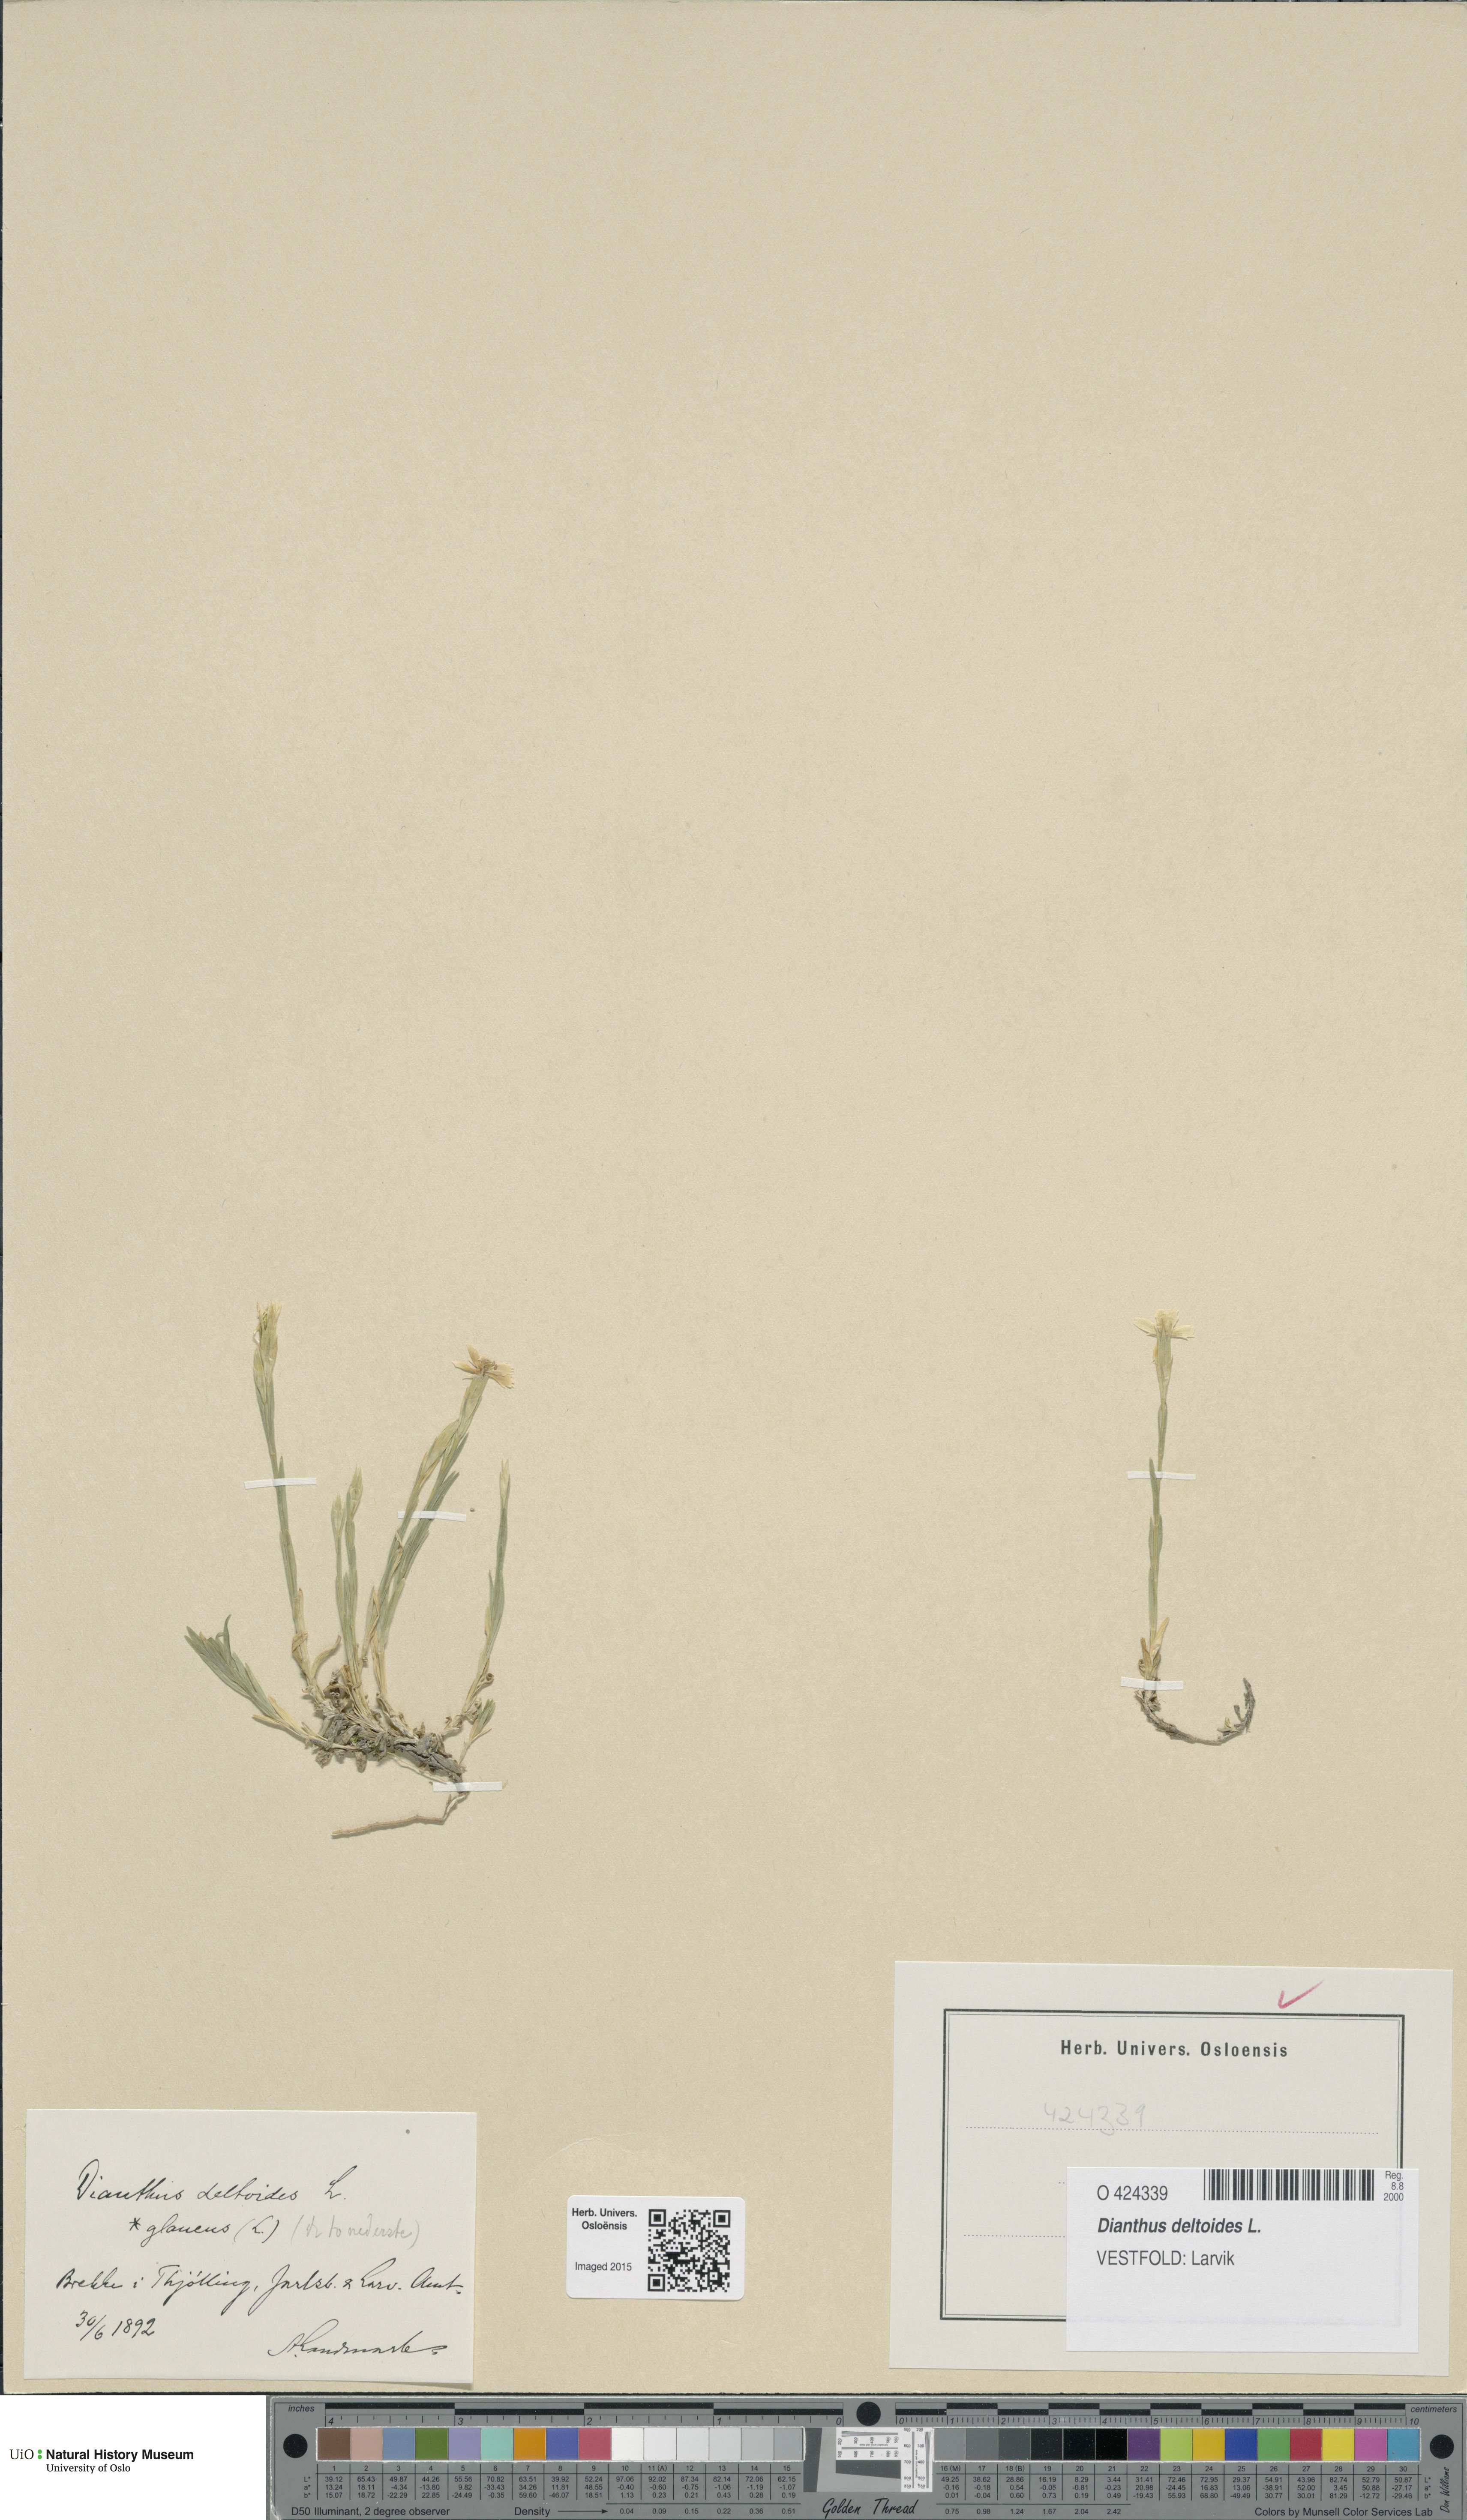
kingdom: Plantae
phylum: Tracheophyta
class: Magnoliopsida
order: Caryophyllales
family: Caryophyllaceae
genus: Dianthus
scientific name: Dianthus deltoides
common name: Maiden pink
